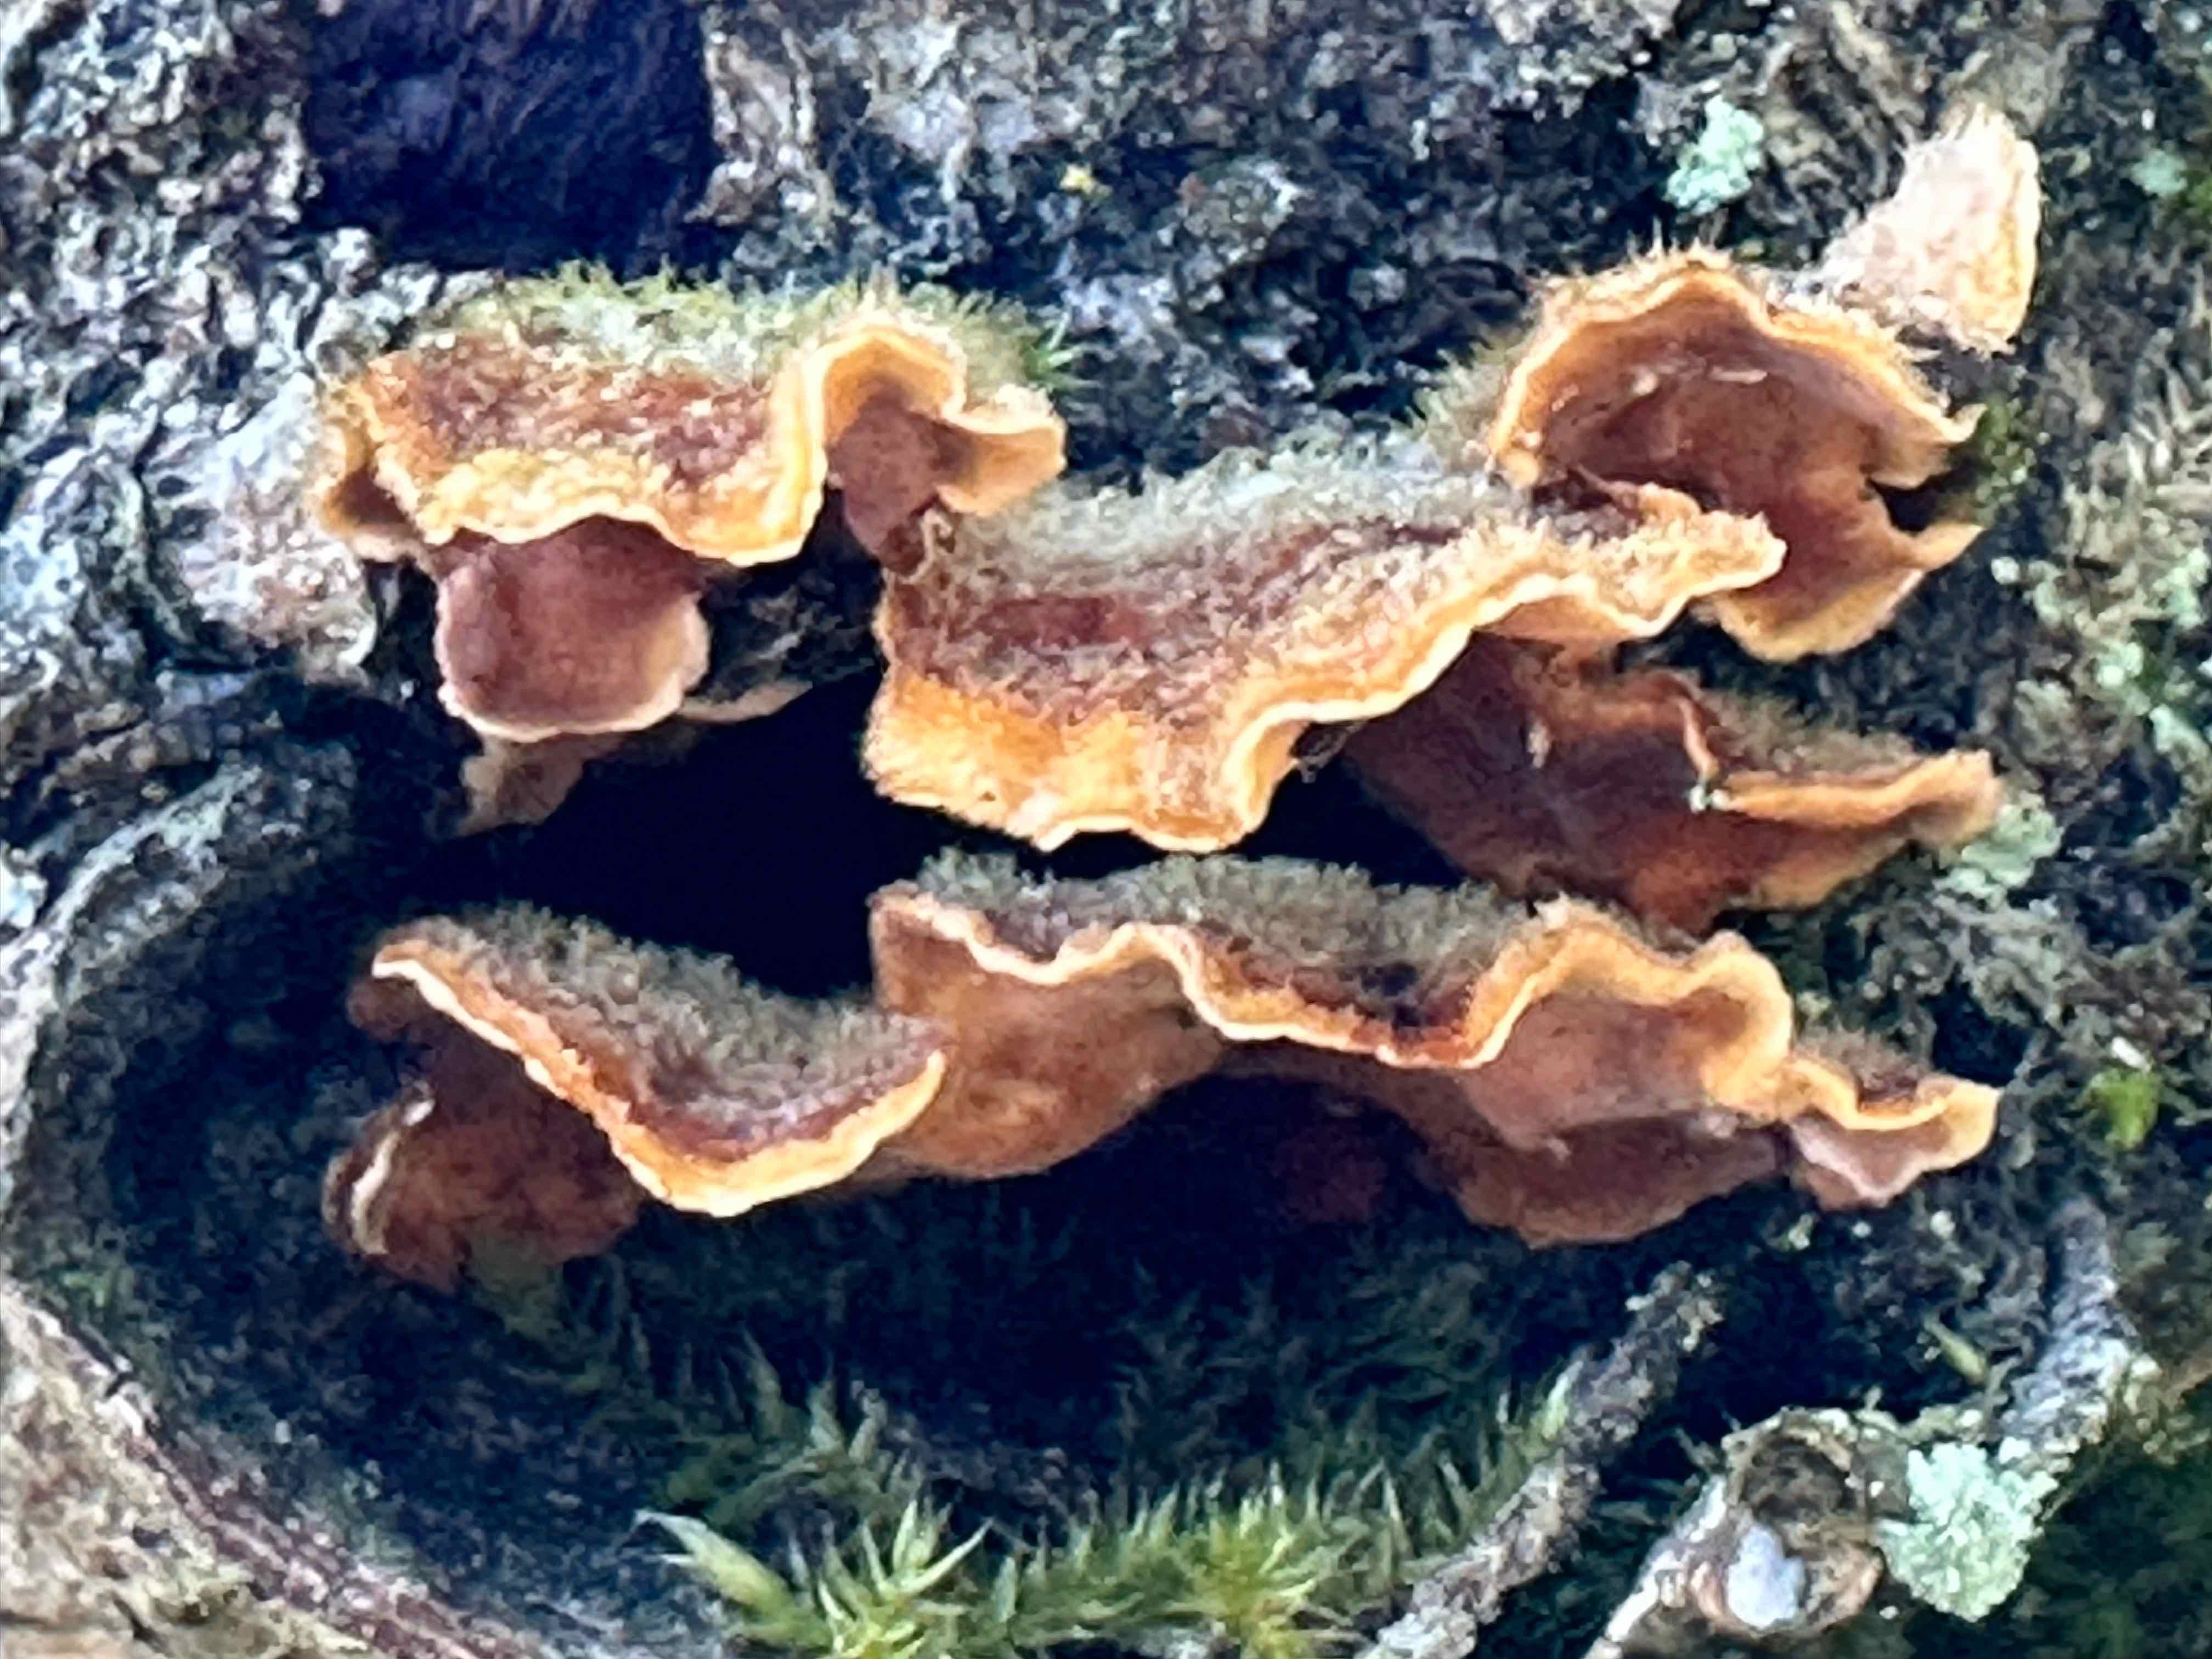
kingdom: Fungi
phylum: Basidiomycota
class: Agaricomycetes
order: Russulales
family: Stereaceae
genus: Stereum
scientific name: Stereum hirsutum
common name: håret lædersvamp
